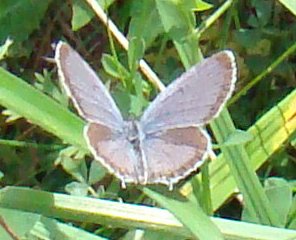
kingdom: Animalia
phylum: Arthropoda
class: Insecta
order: Lepidoptera
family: Lycaenidae
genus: Elkalyce
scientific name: Elkalyce comyntas
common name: Eastern Tailed-Blue
